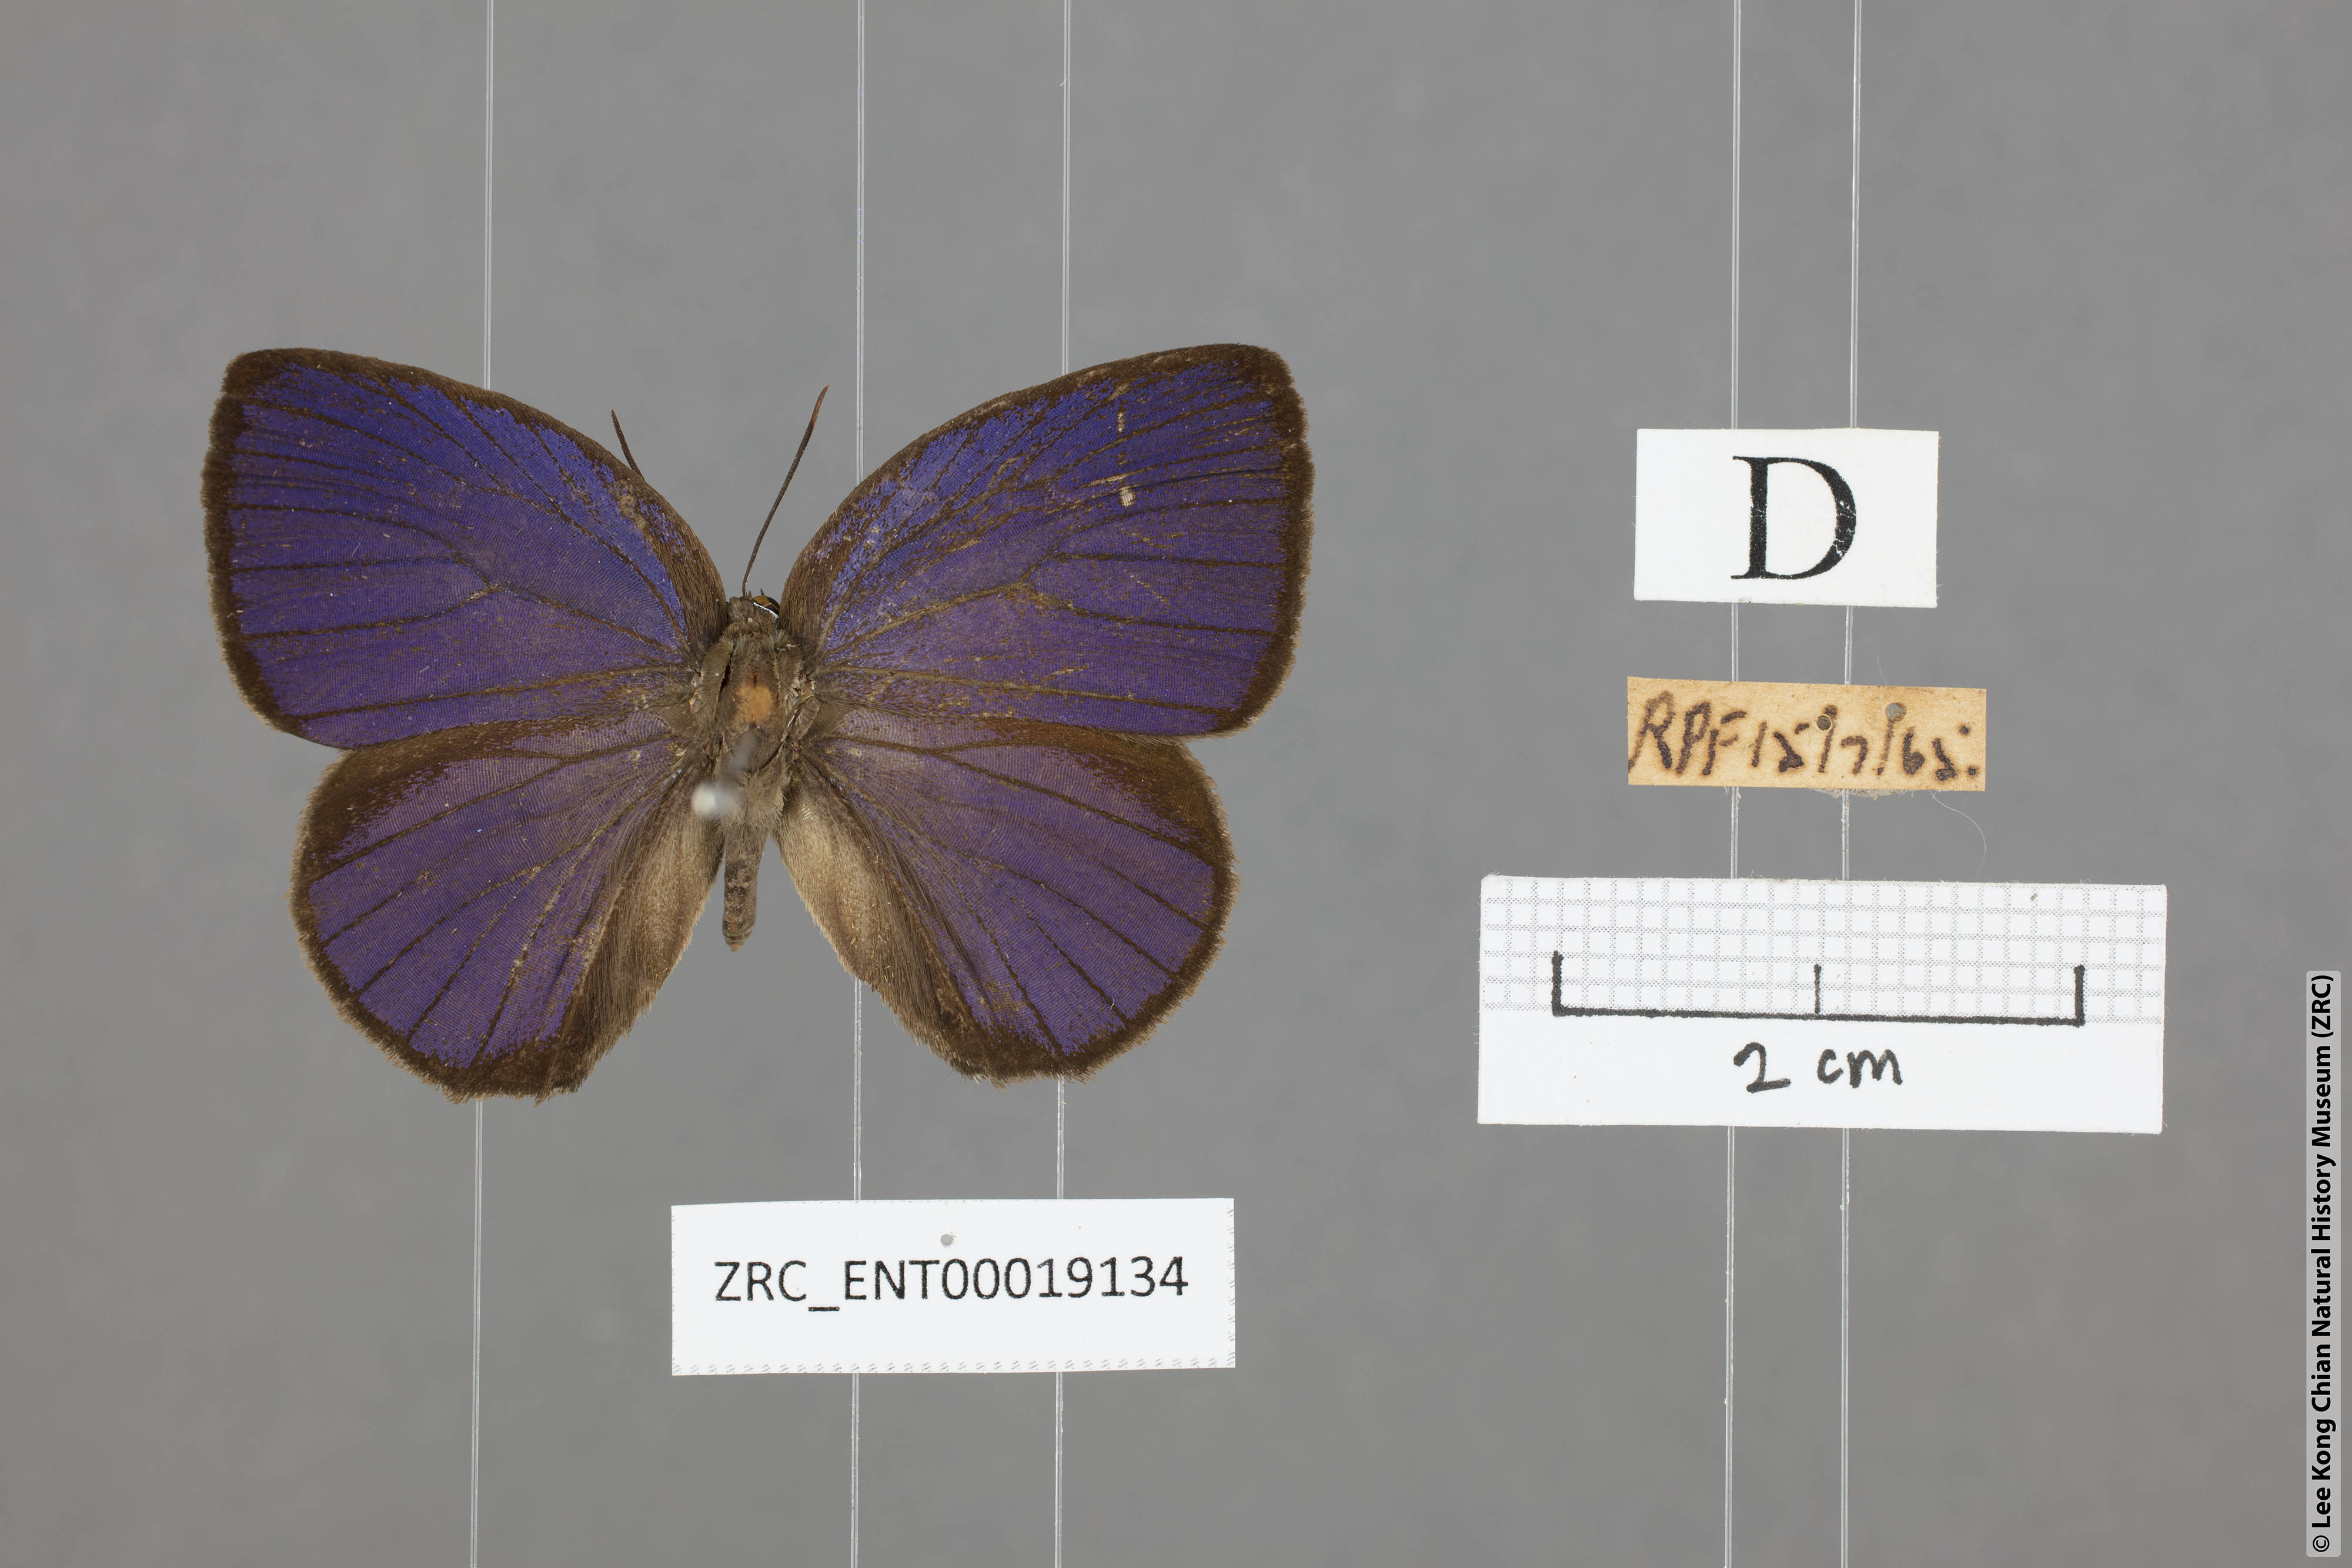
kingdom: Animalia
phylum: Arthropoda
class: Insecta
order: Lepidoptera
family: Lycaenidae
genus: Arhopala
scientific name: Arhopala amphimuta
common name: Broad yellow oakblue
